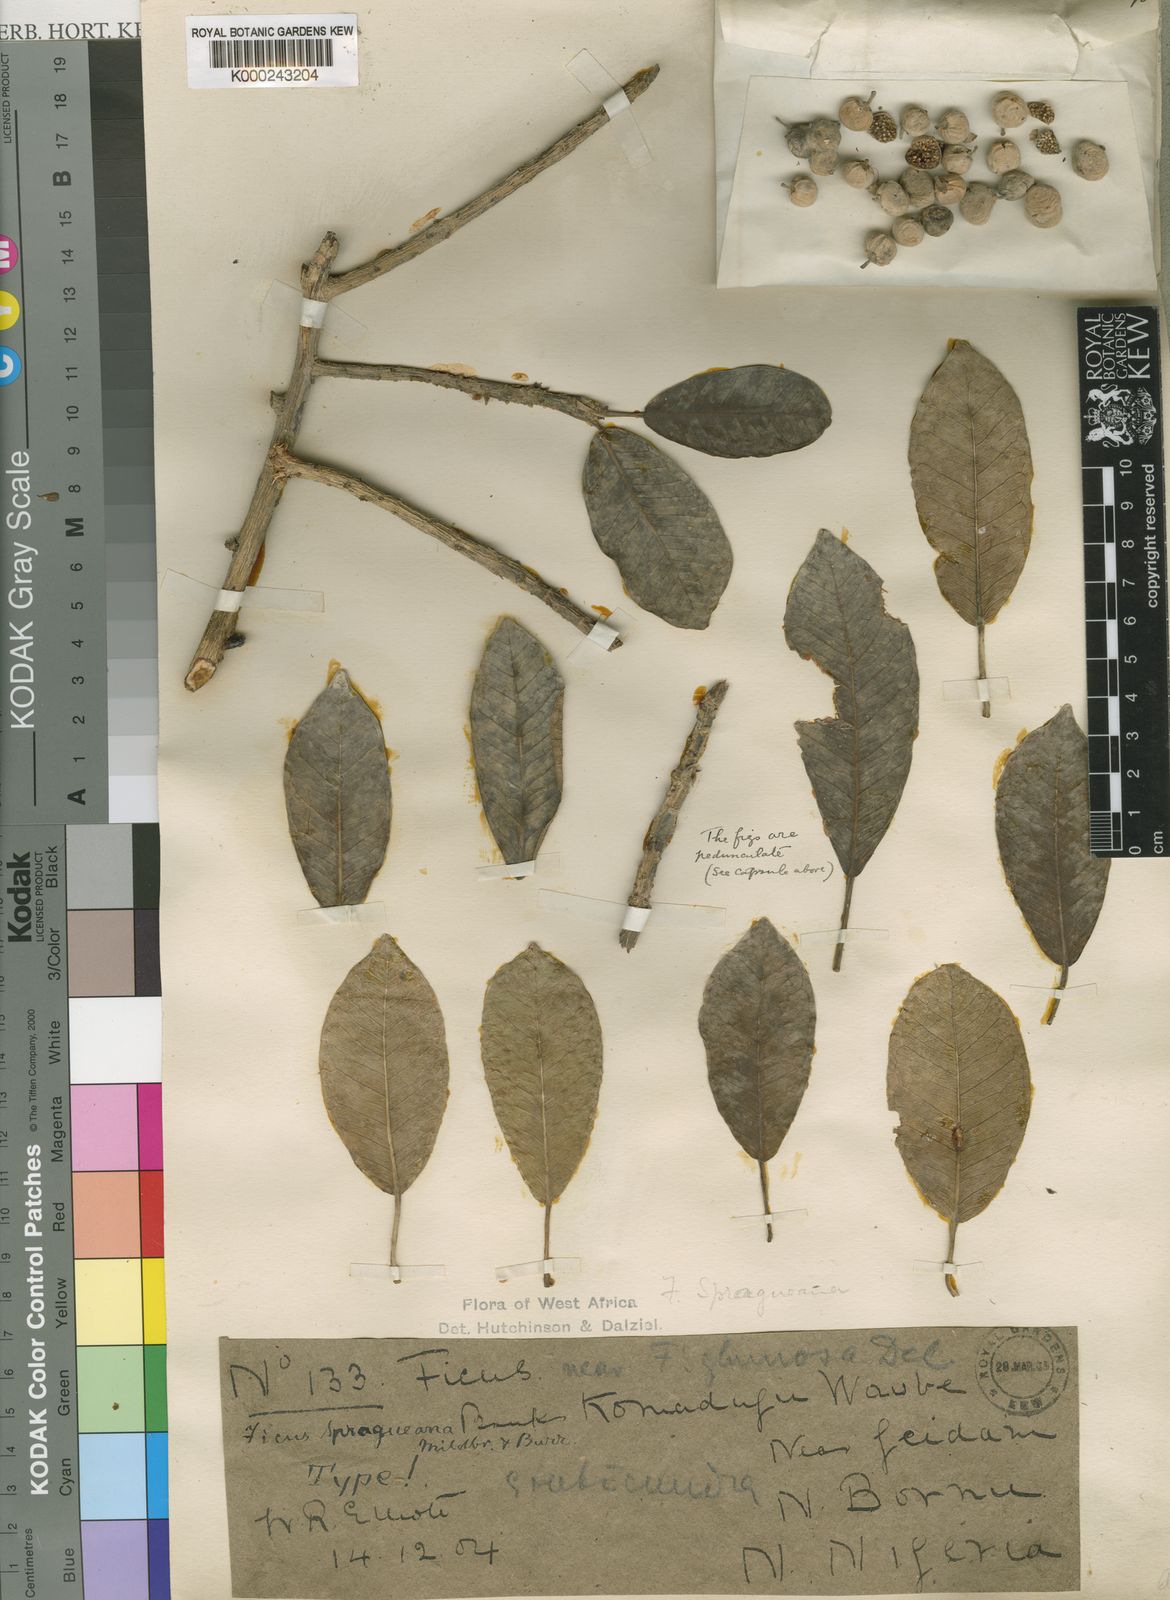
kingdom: Plantae
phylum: Tracheophyta
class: Magnoliopsida
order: Rosales
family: Moraceae
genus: Ficus
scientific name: Ficus thonningii
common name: Fig
